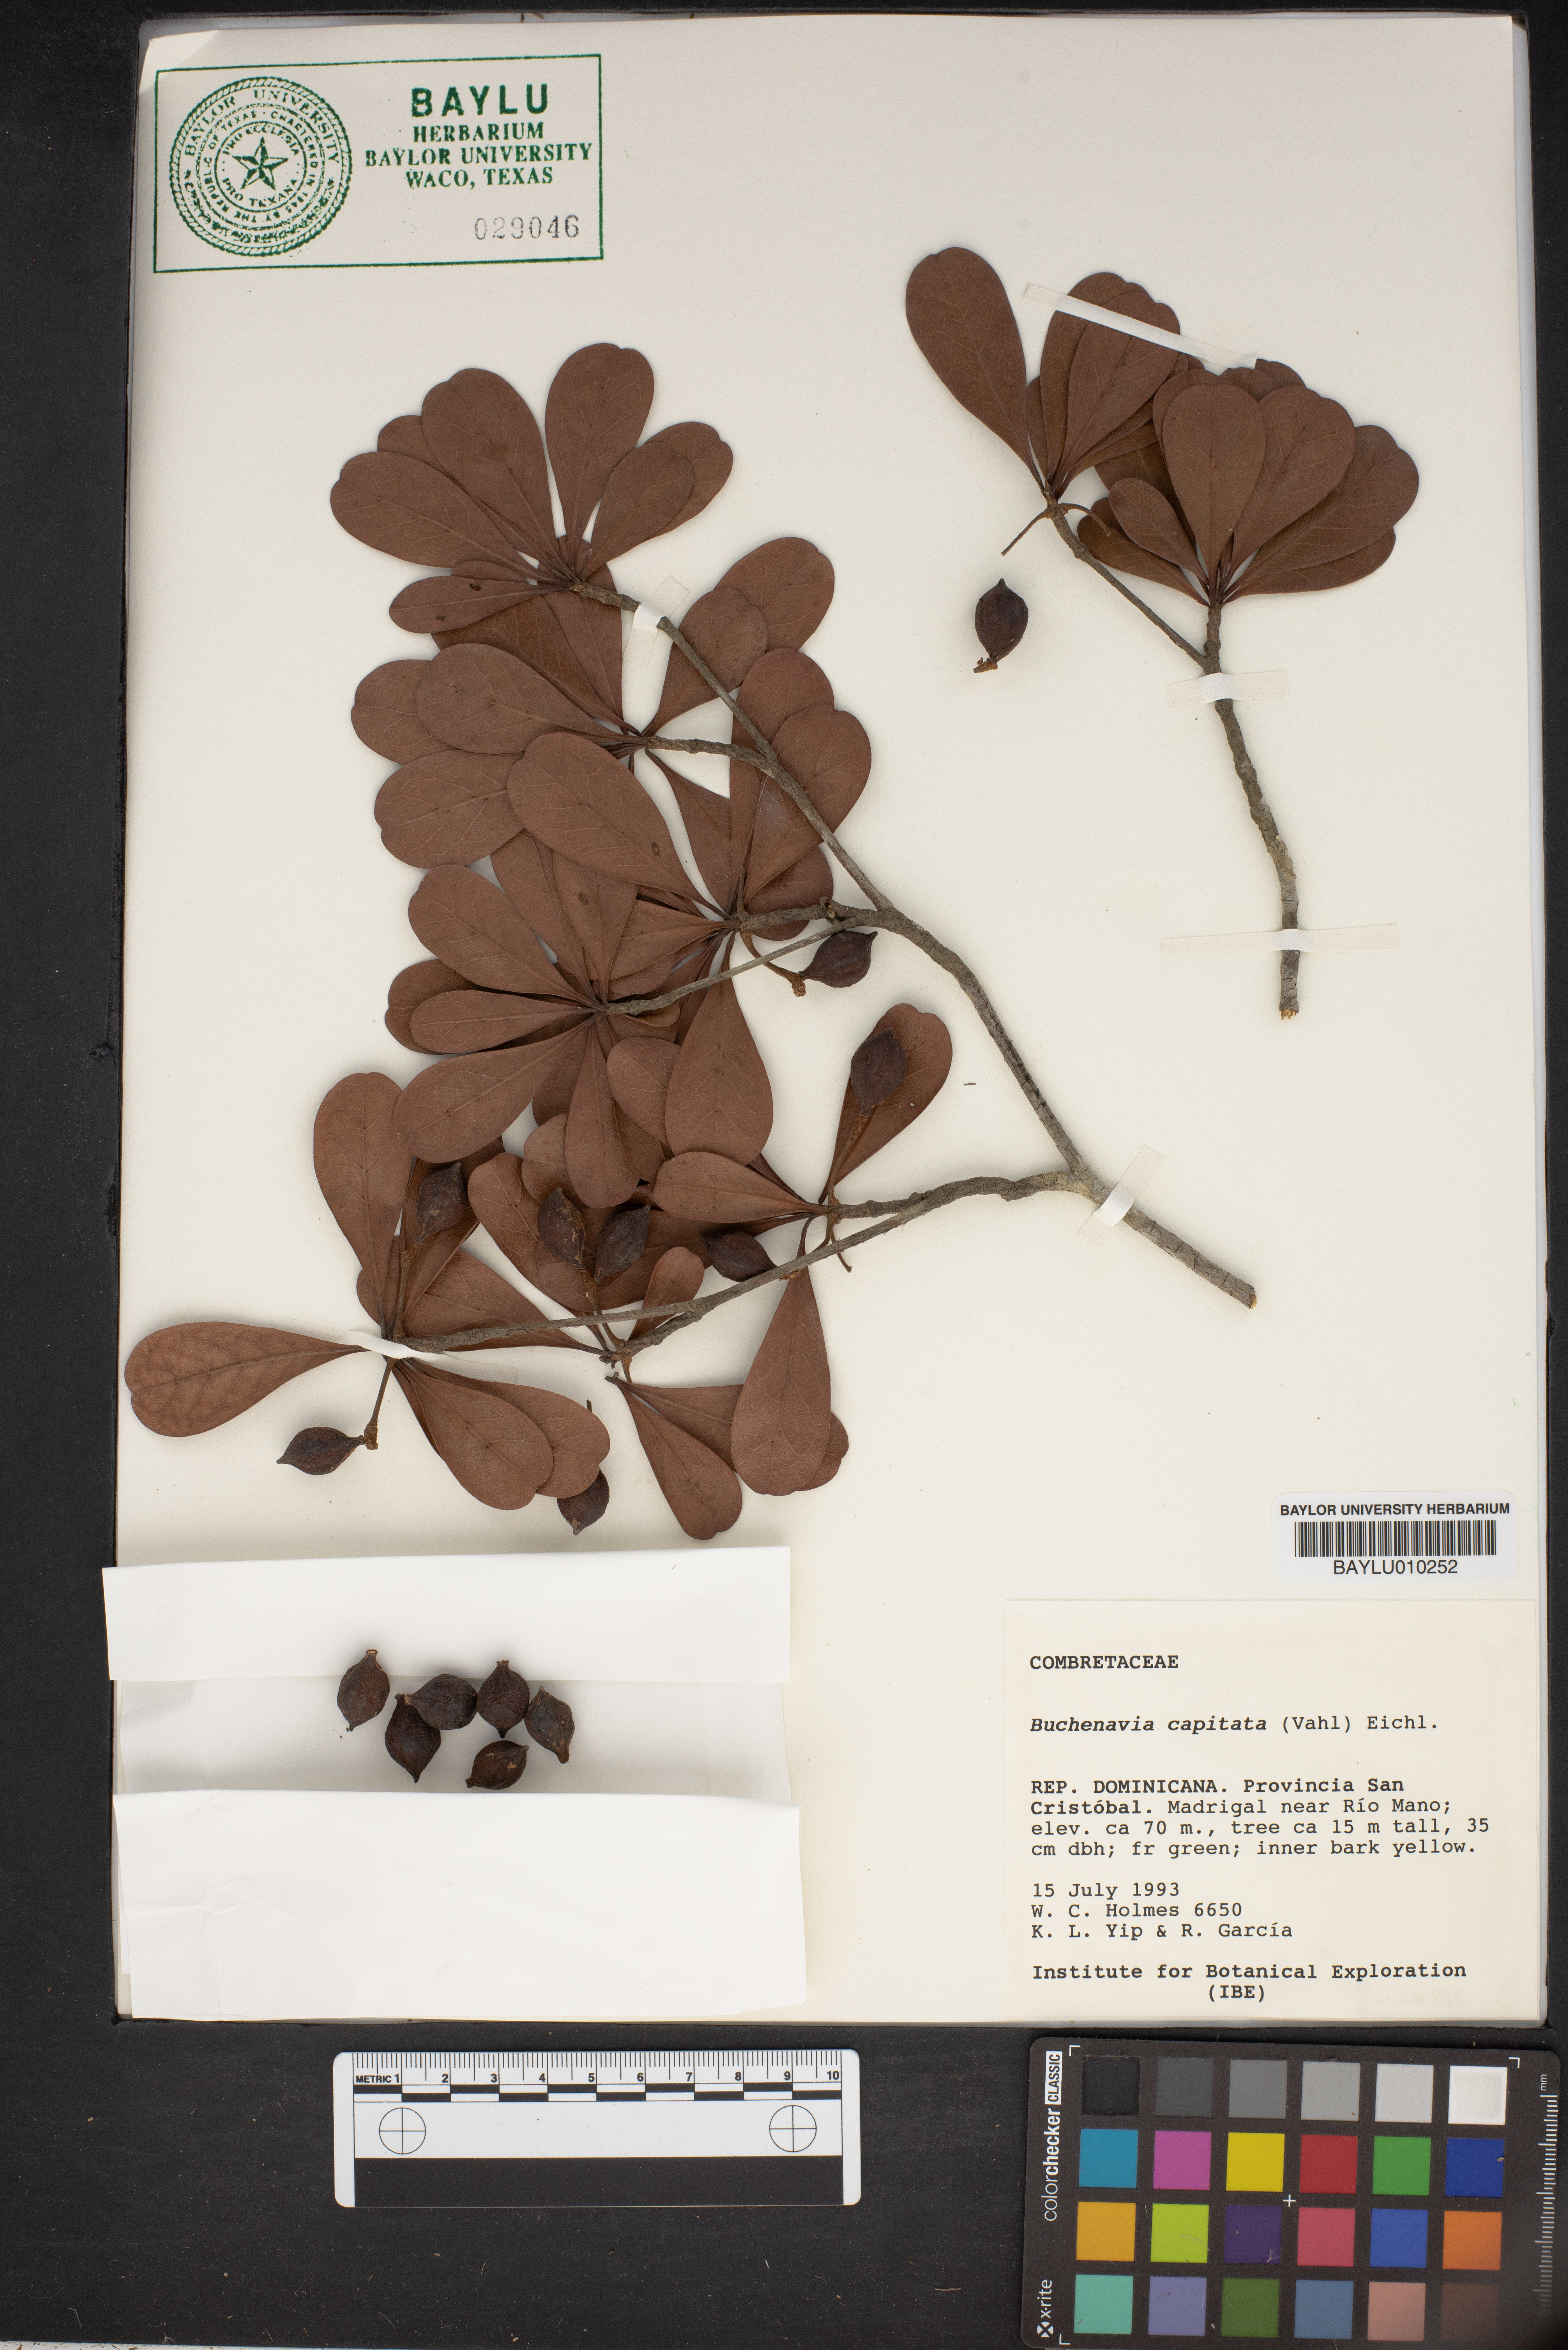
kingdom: Plantae
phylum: Tracheophyta
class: Magnoliopsida
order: Myrtales
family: Combretaceae
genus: Terminalia
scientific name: Terminalia tetraphylla
